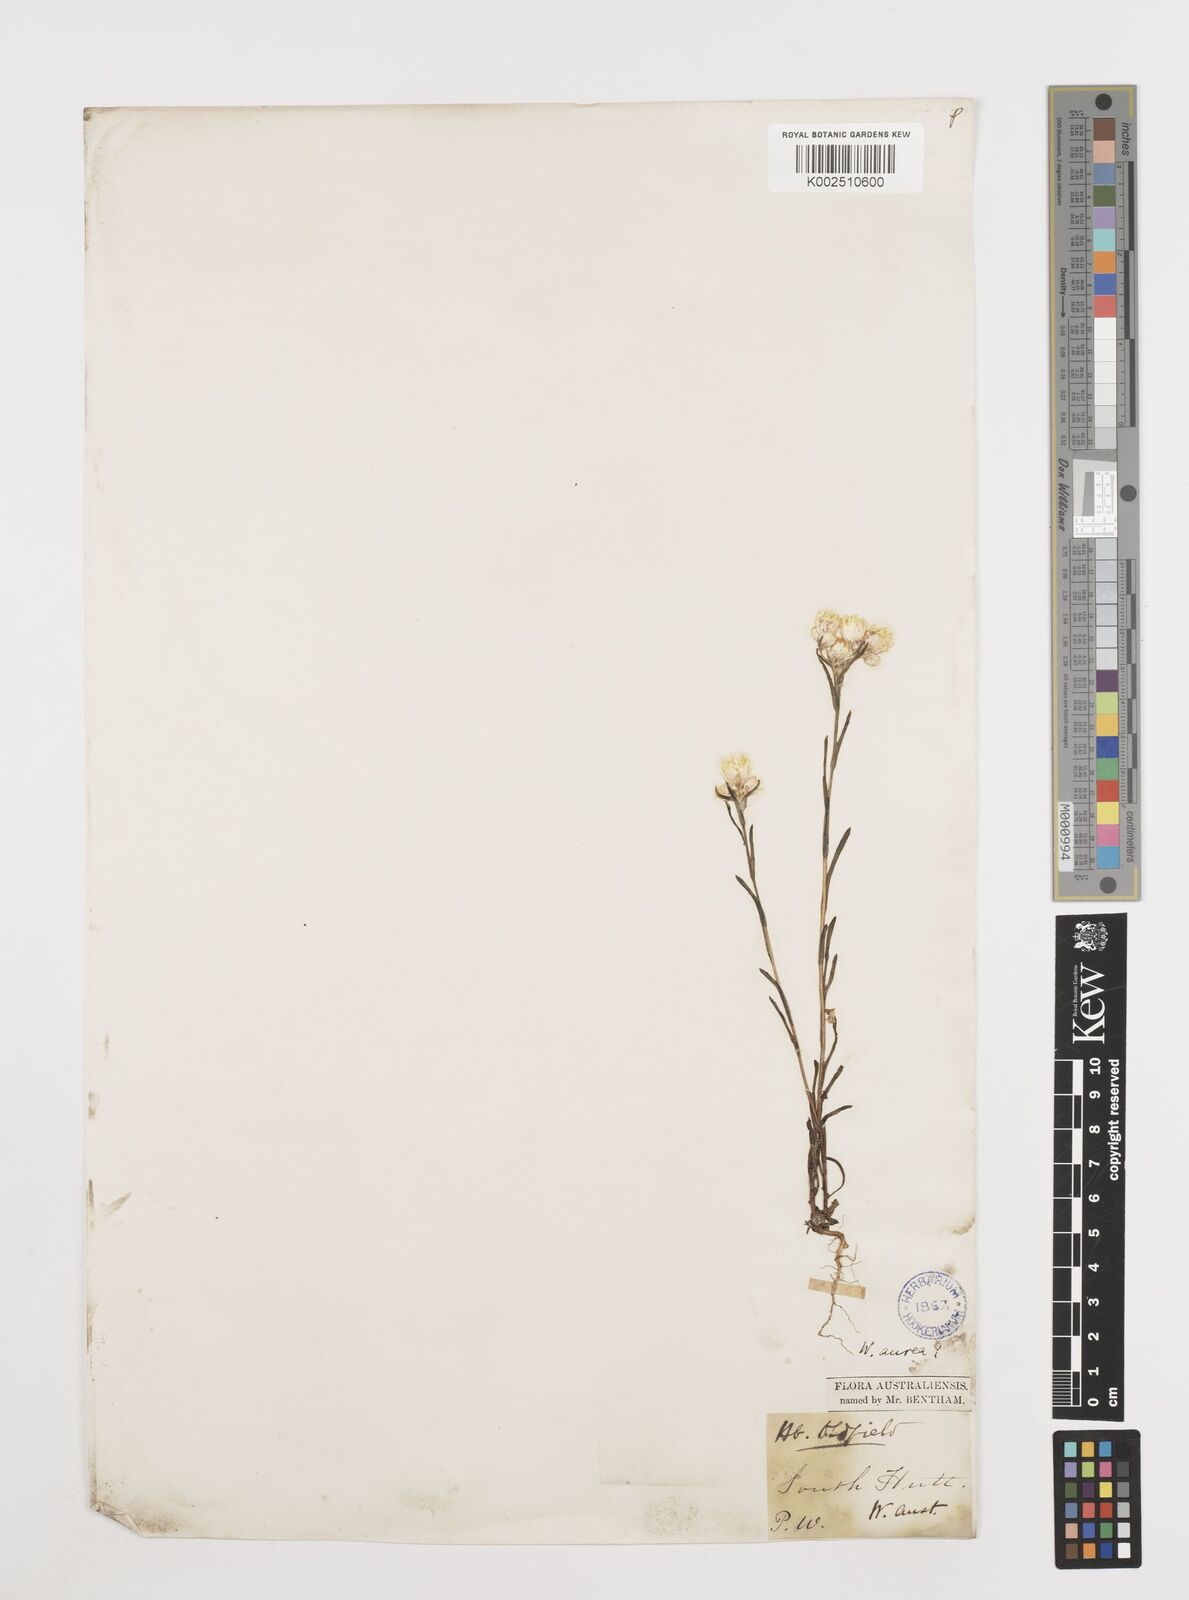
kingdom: Plantae
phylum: Tracheophyta
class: Magnoliopsida
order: Asterales
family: Asteraceae
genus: Waitzia
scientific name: Waitzia nitida
